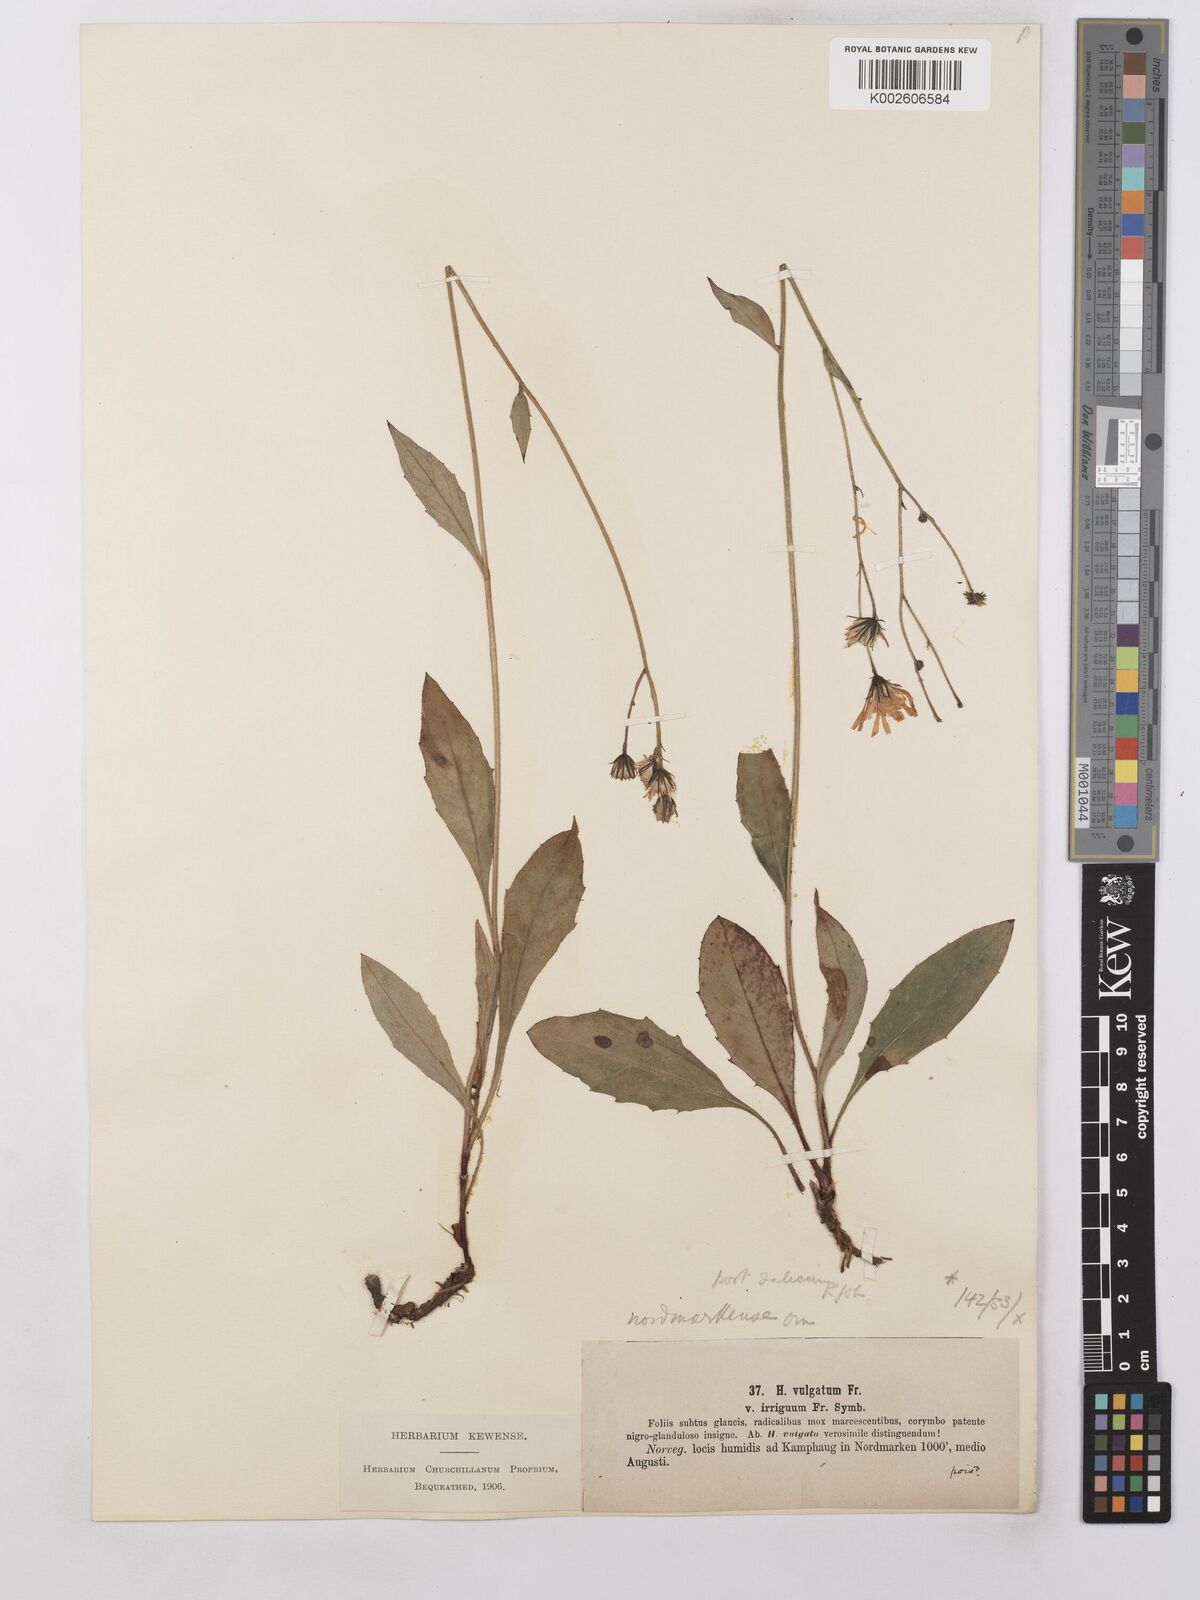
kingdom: Plantae
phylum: Tracheophyta
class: Magnoliopsida
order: Asterales
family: Asteraceae
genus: Hieracium
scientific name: Hieracium lachenalii
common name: Common hawkweed
